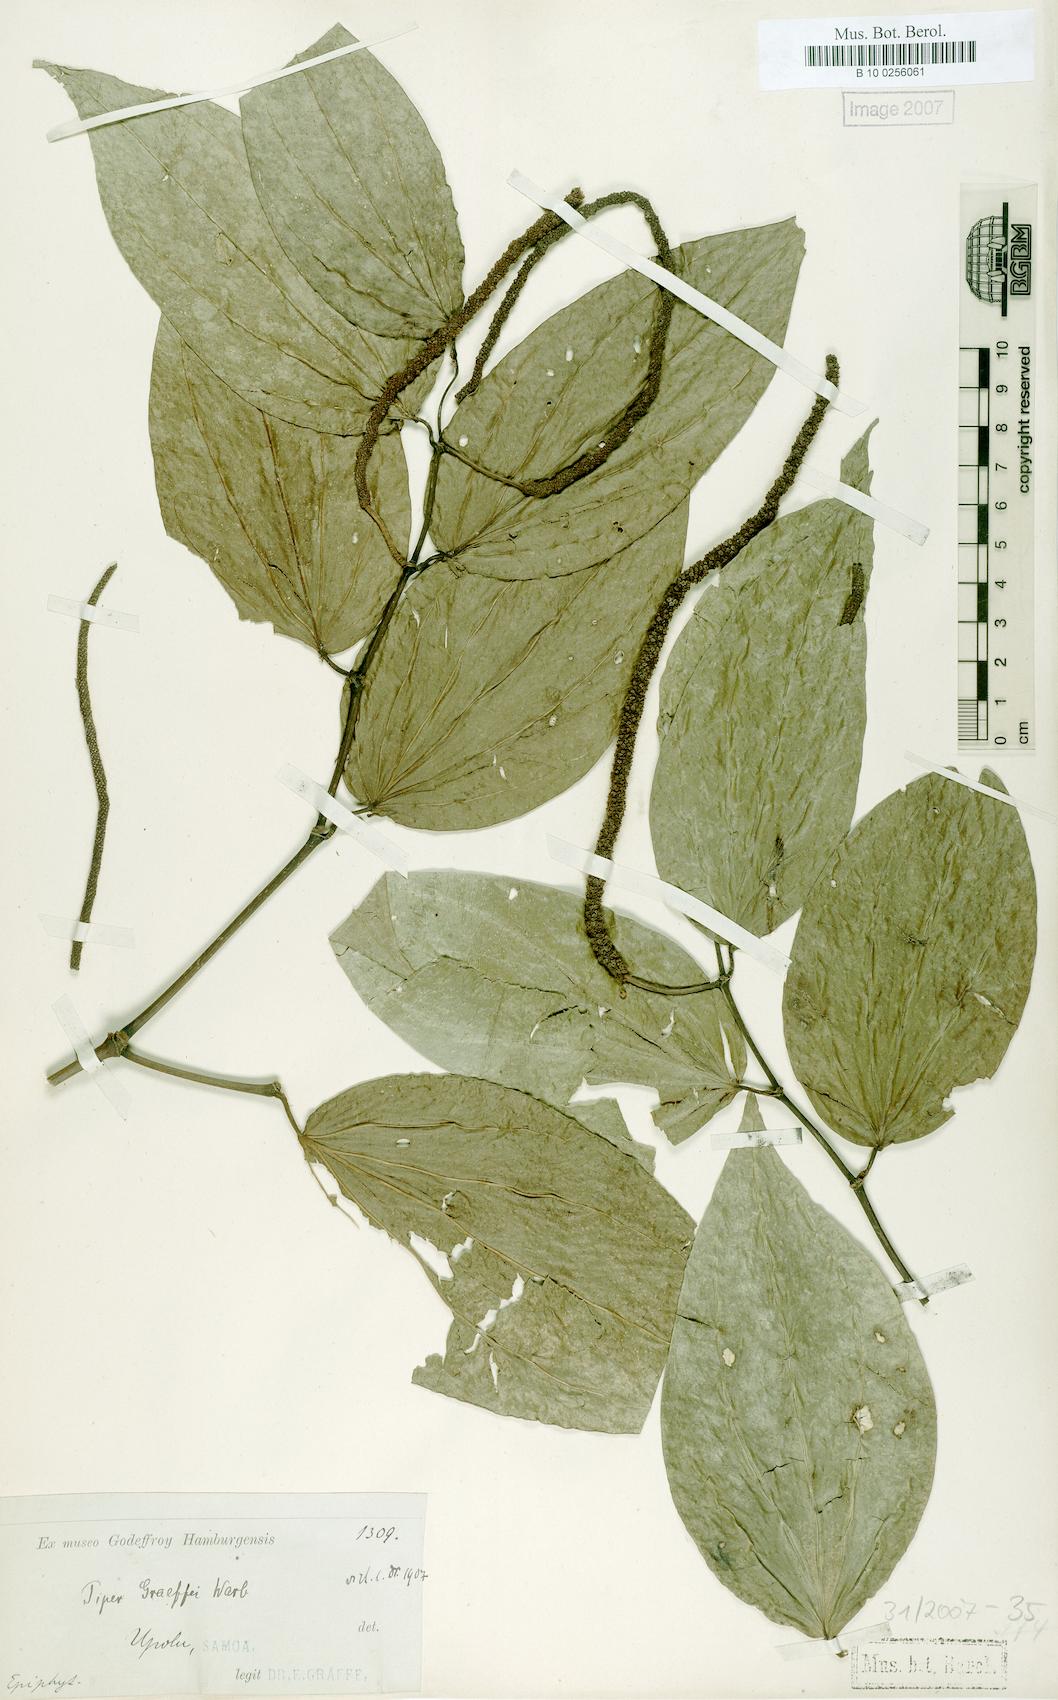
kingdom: Plantae
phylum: Tracheophyta
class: Magnoliopsida
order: Piperales
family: Piperaceae
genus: Piper
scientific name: Piper graeffei
